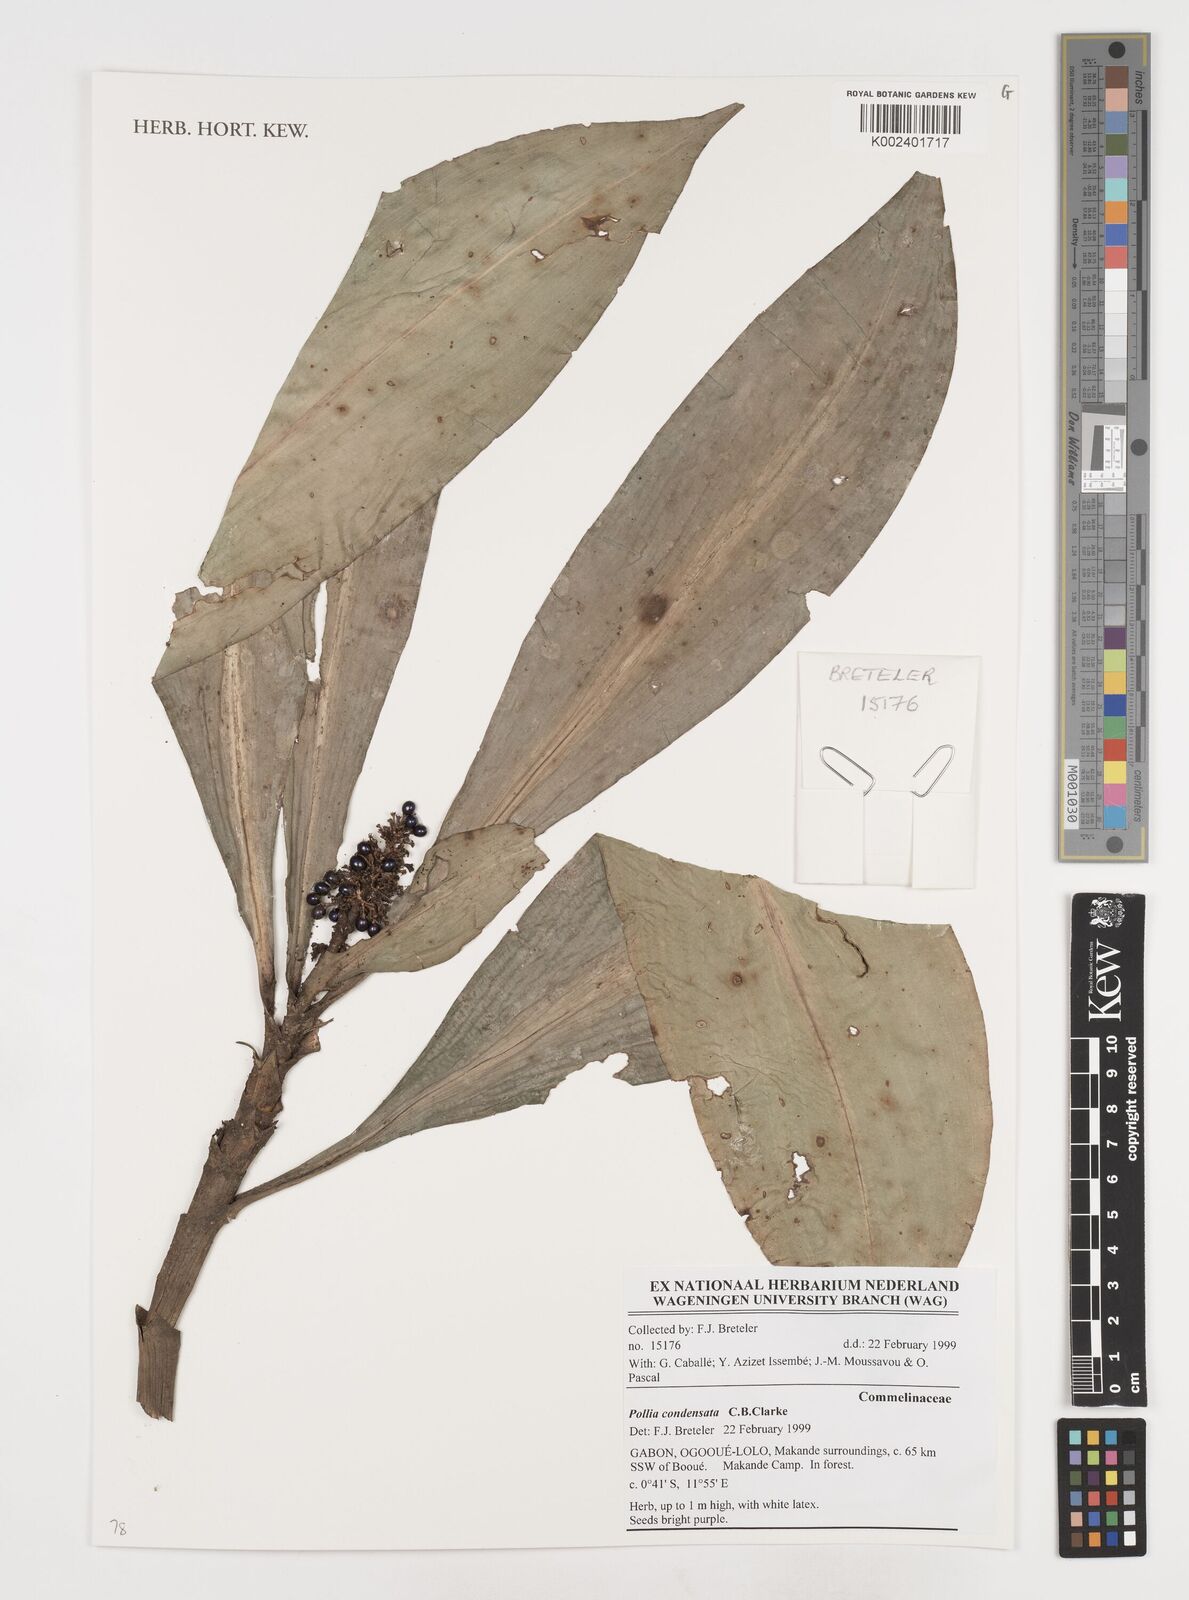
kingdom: Plantae
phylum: Tracheophyta
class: Liliopsida
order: Commelinales
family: Commelinaceae
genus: Pollia
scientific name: Pollia condensata
